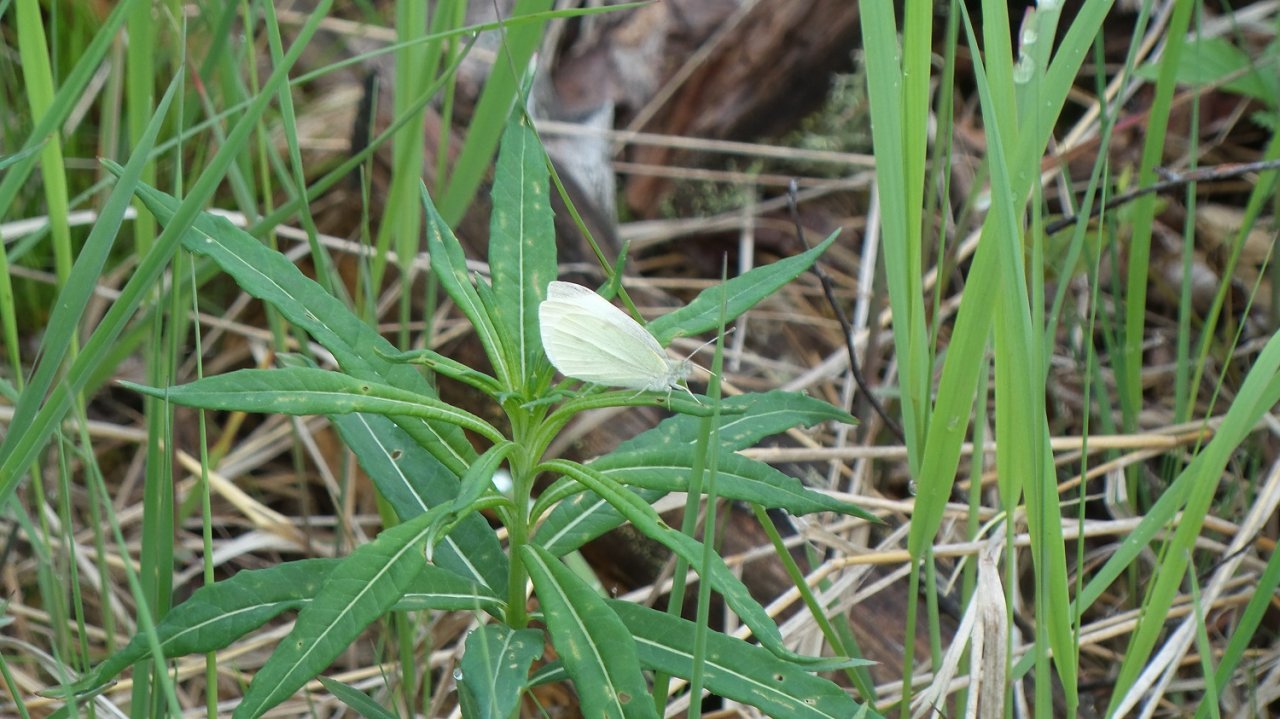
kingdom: Animalia
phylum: Arthropoda
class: Insecta
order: Lepidoptera
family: Pieridae
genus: Pieris
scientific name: Pieris rapae
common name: Cabbage White
